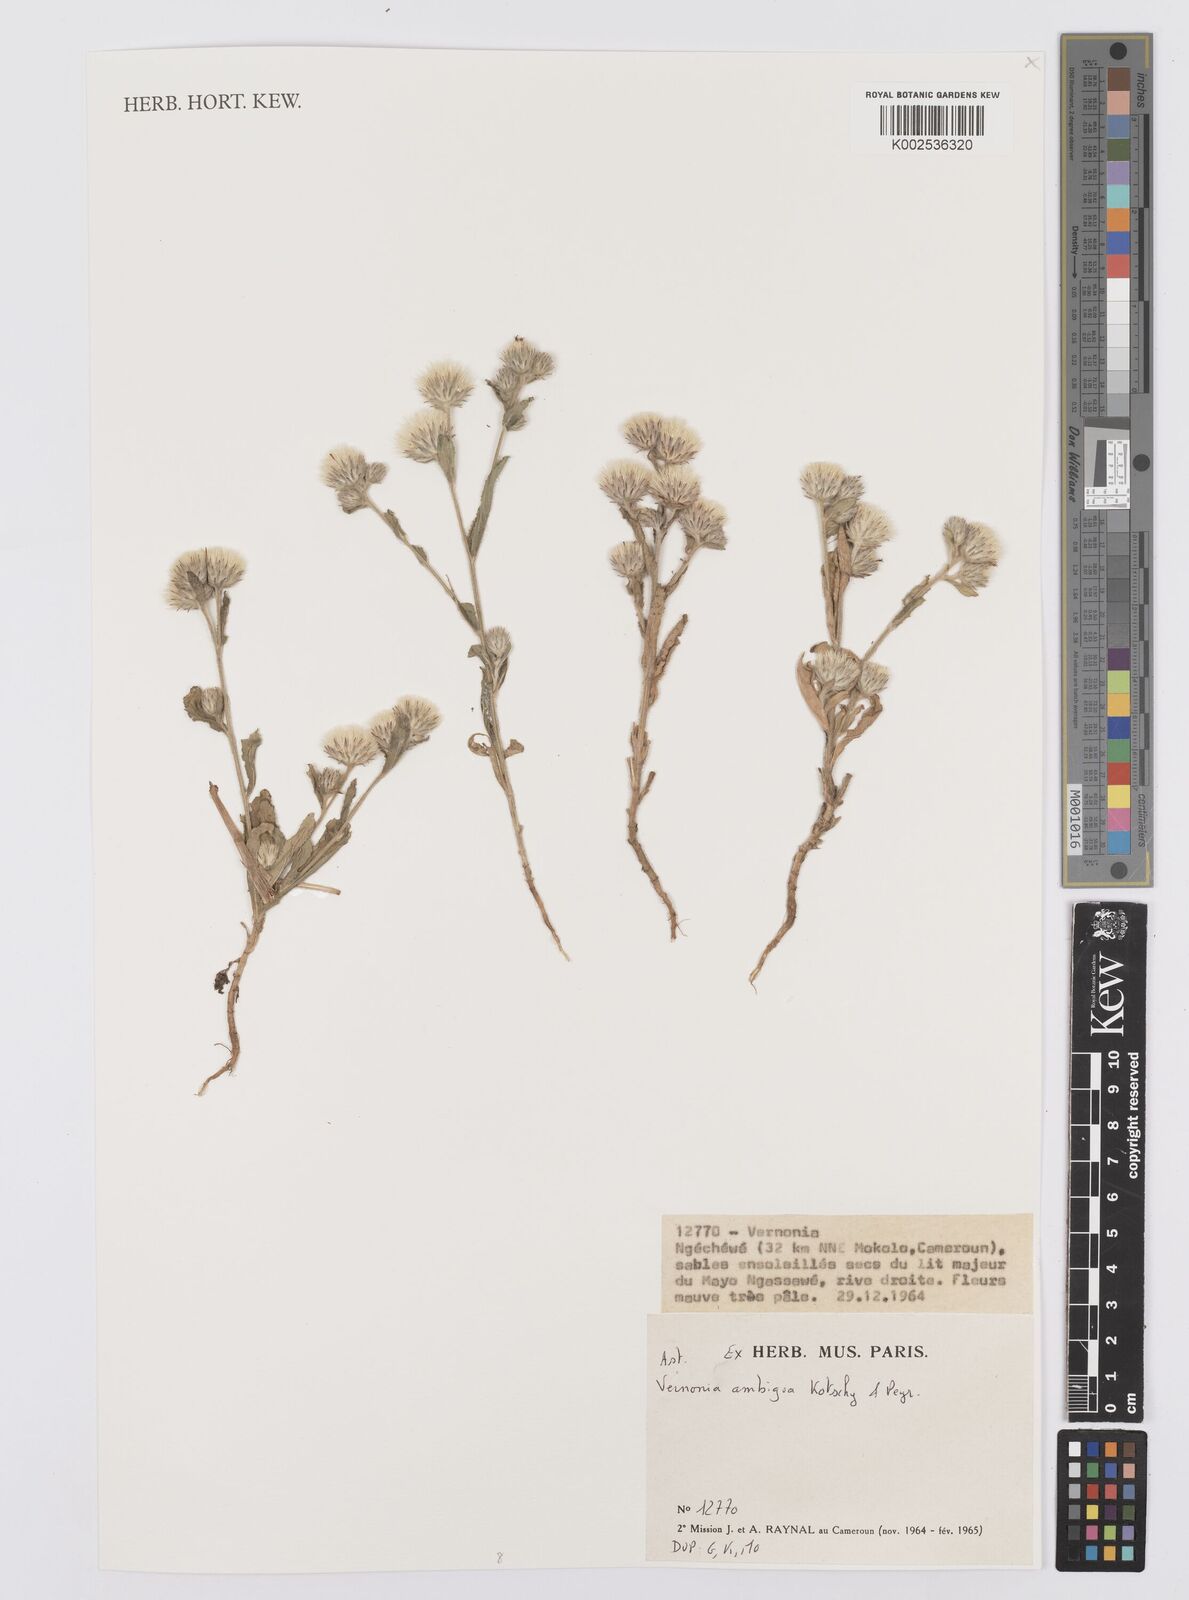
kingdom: Plantae
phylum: Tracheophyta
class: Magnoliopsida
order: Asterales
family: Asteraceae
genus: Vernoniastrum
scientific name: Vernoniastrum ambiguum
